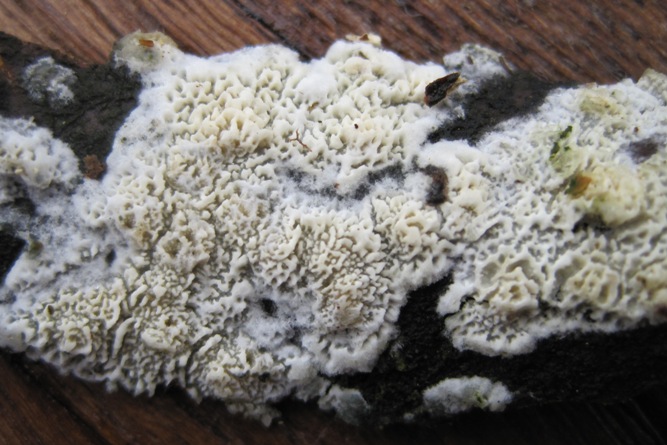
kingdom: Fungi
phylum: Basidiomycota
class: Agaricomycetes
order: Hymenochaetales
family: Schizoporaceae
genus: Schizopora
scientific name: Schizopora paradoxa
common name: hvid tandsvamp
